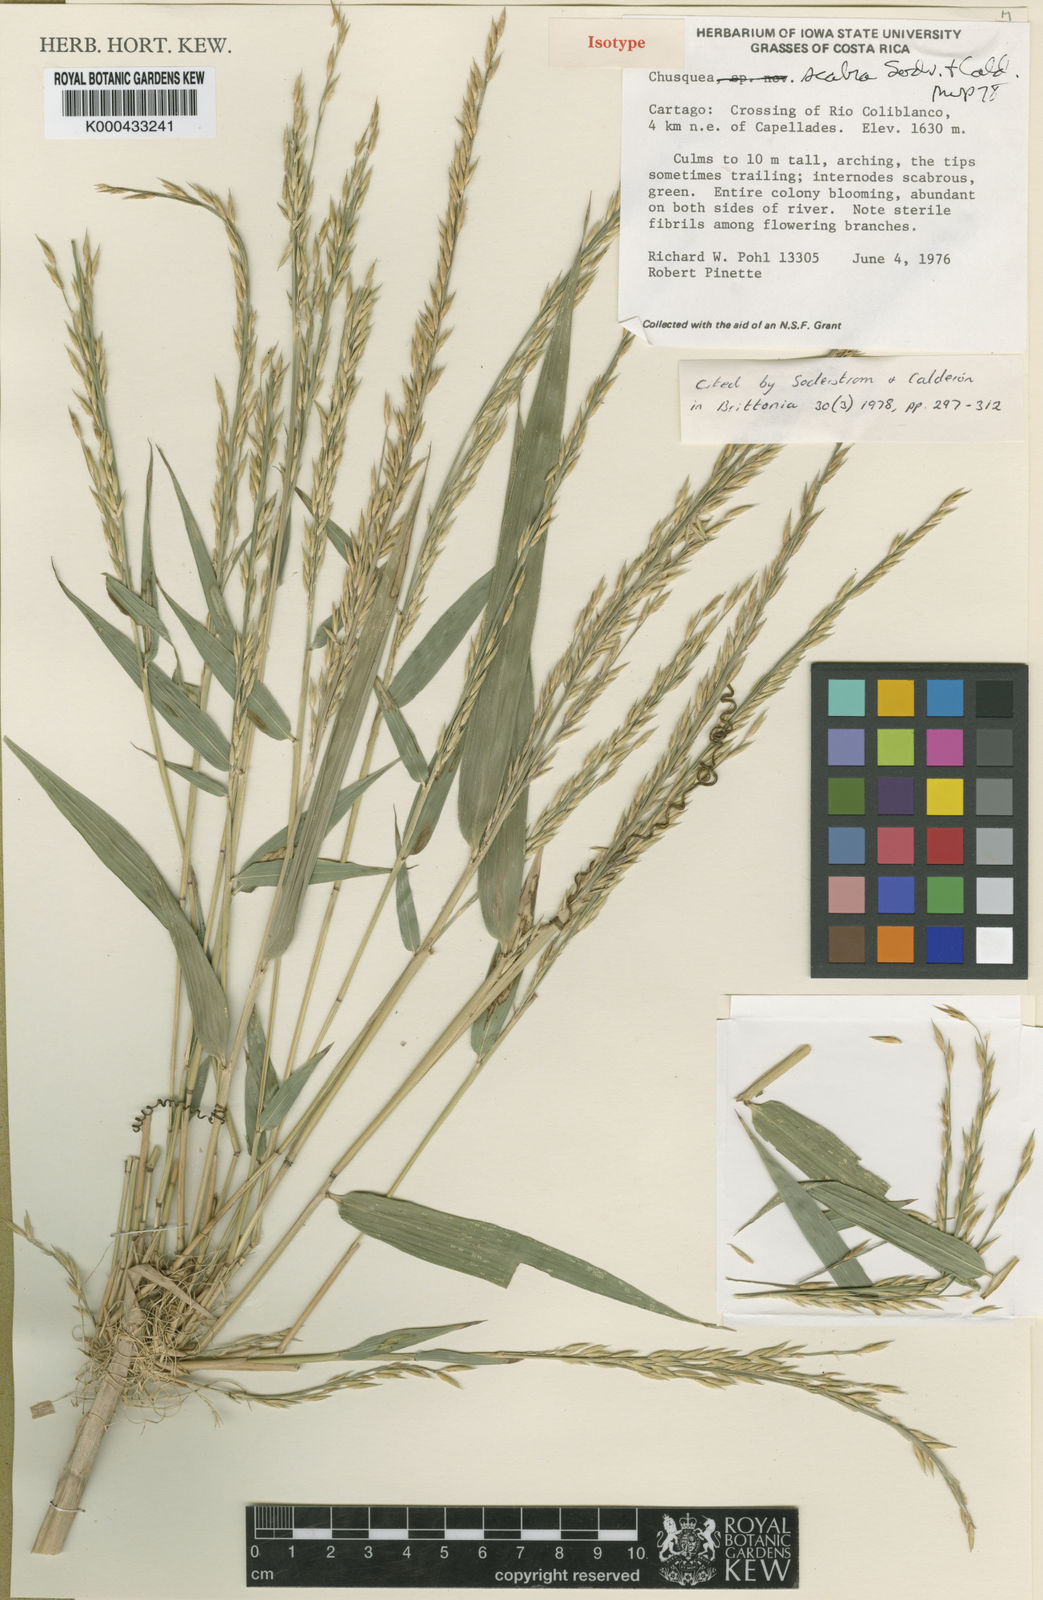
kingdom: Plantae
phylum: Tracheophyta
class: Liliopsida
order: Poales
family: Poaceae
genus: Chusquea
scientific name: Chusquea scabra
